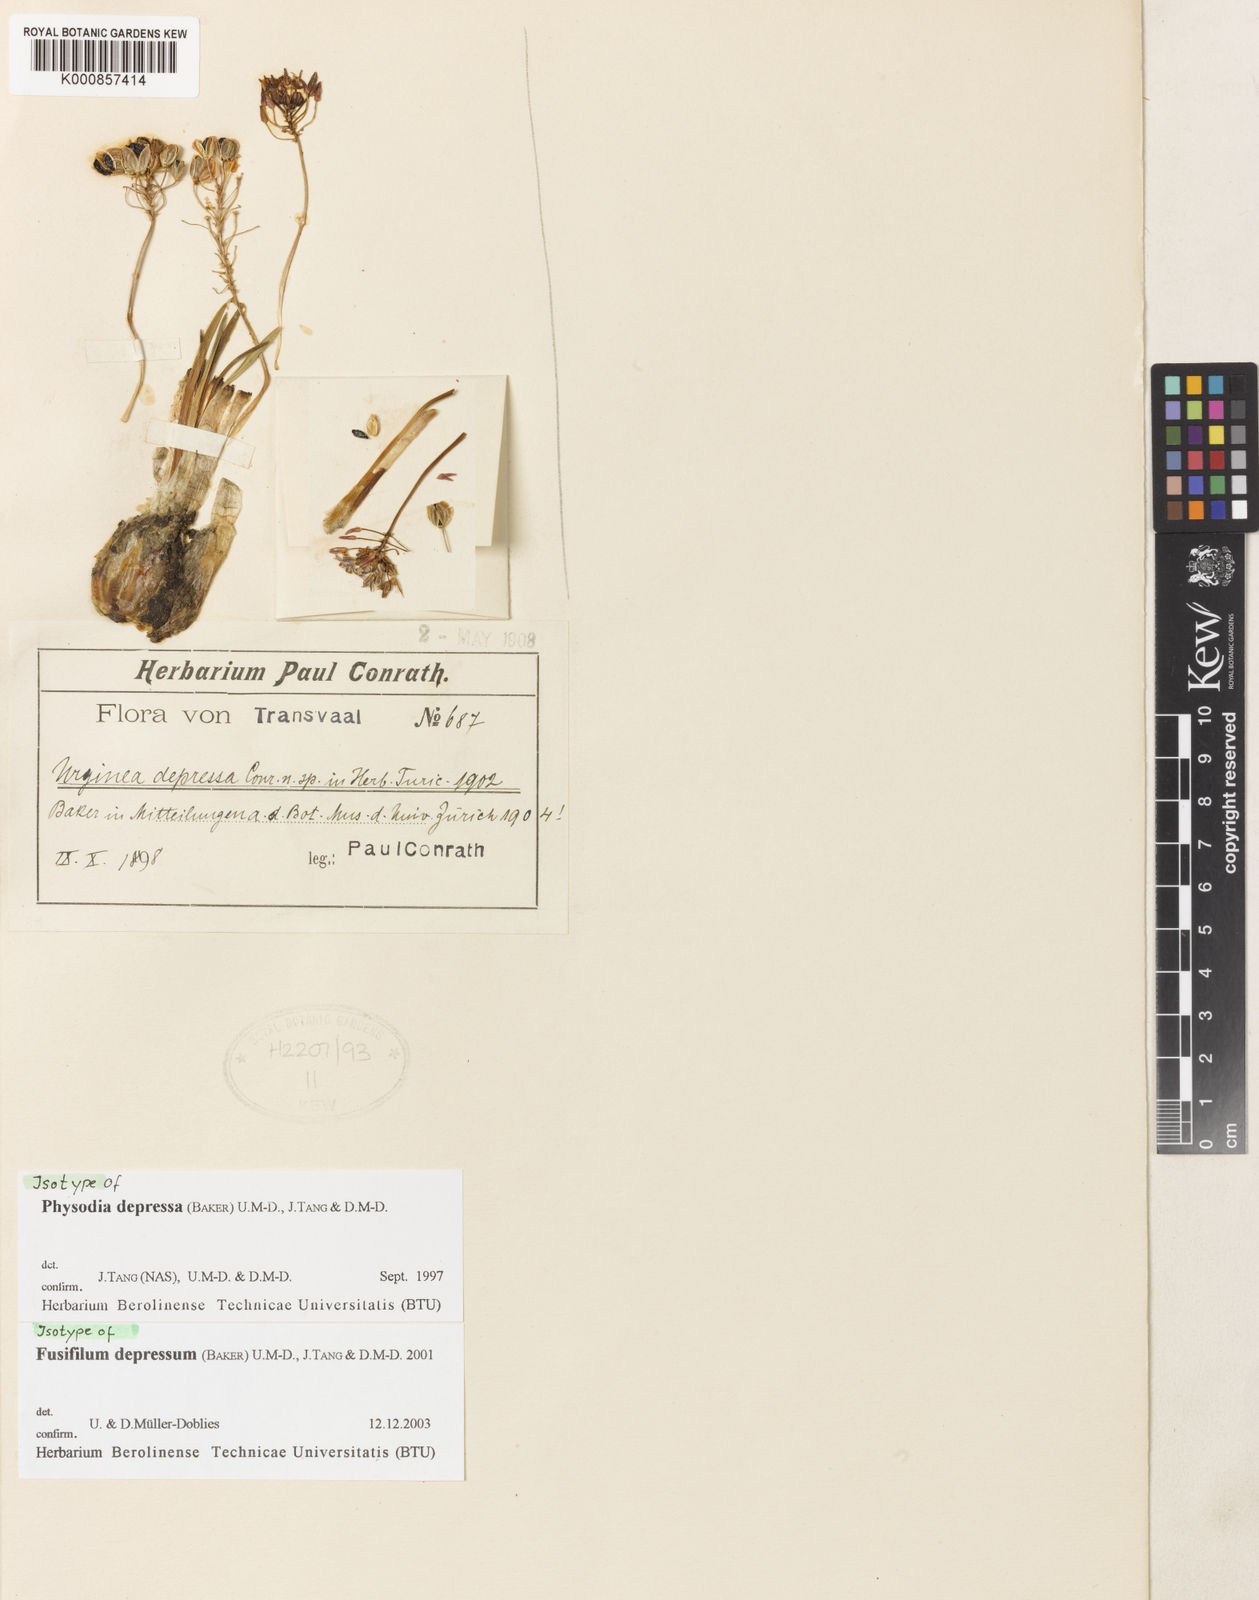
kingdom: Plantae
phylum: Tracheophyta
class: Liliopsida
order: Asparagales
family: Asparagaceae
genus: Fusifilum
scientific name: Fusifilum
